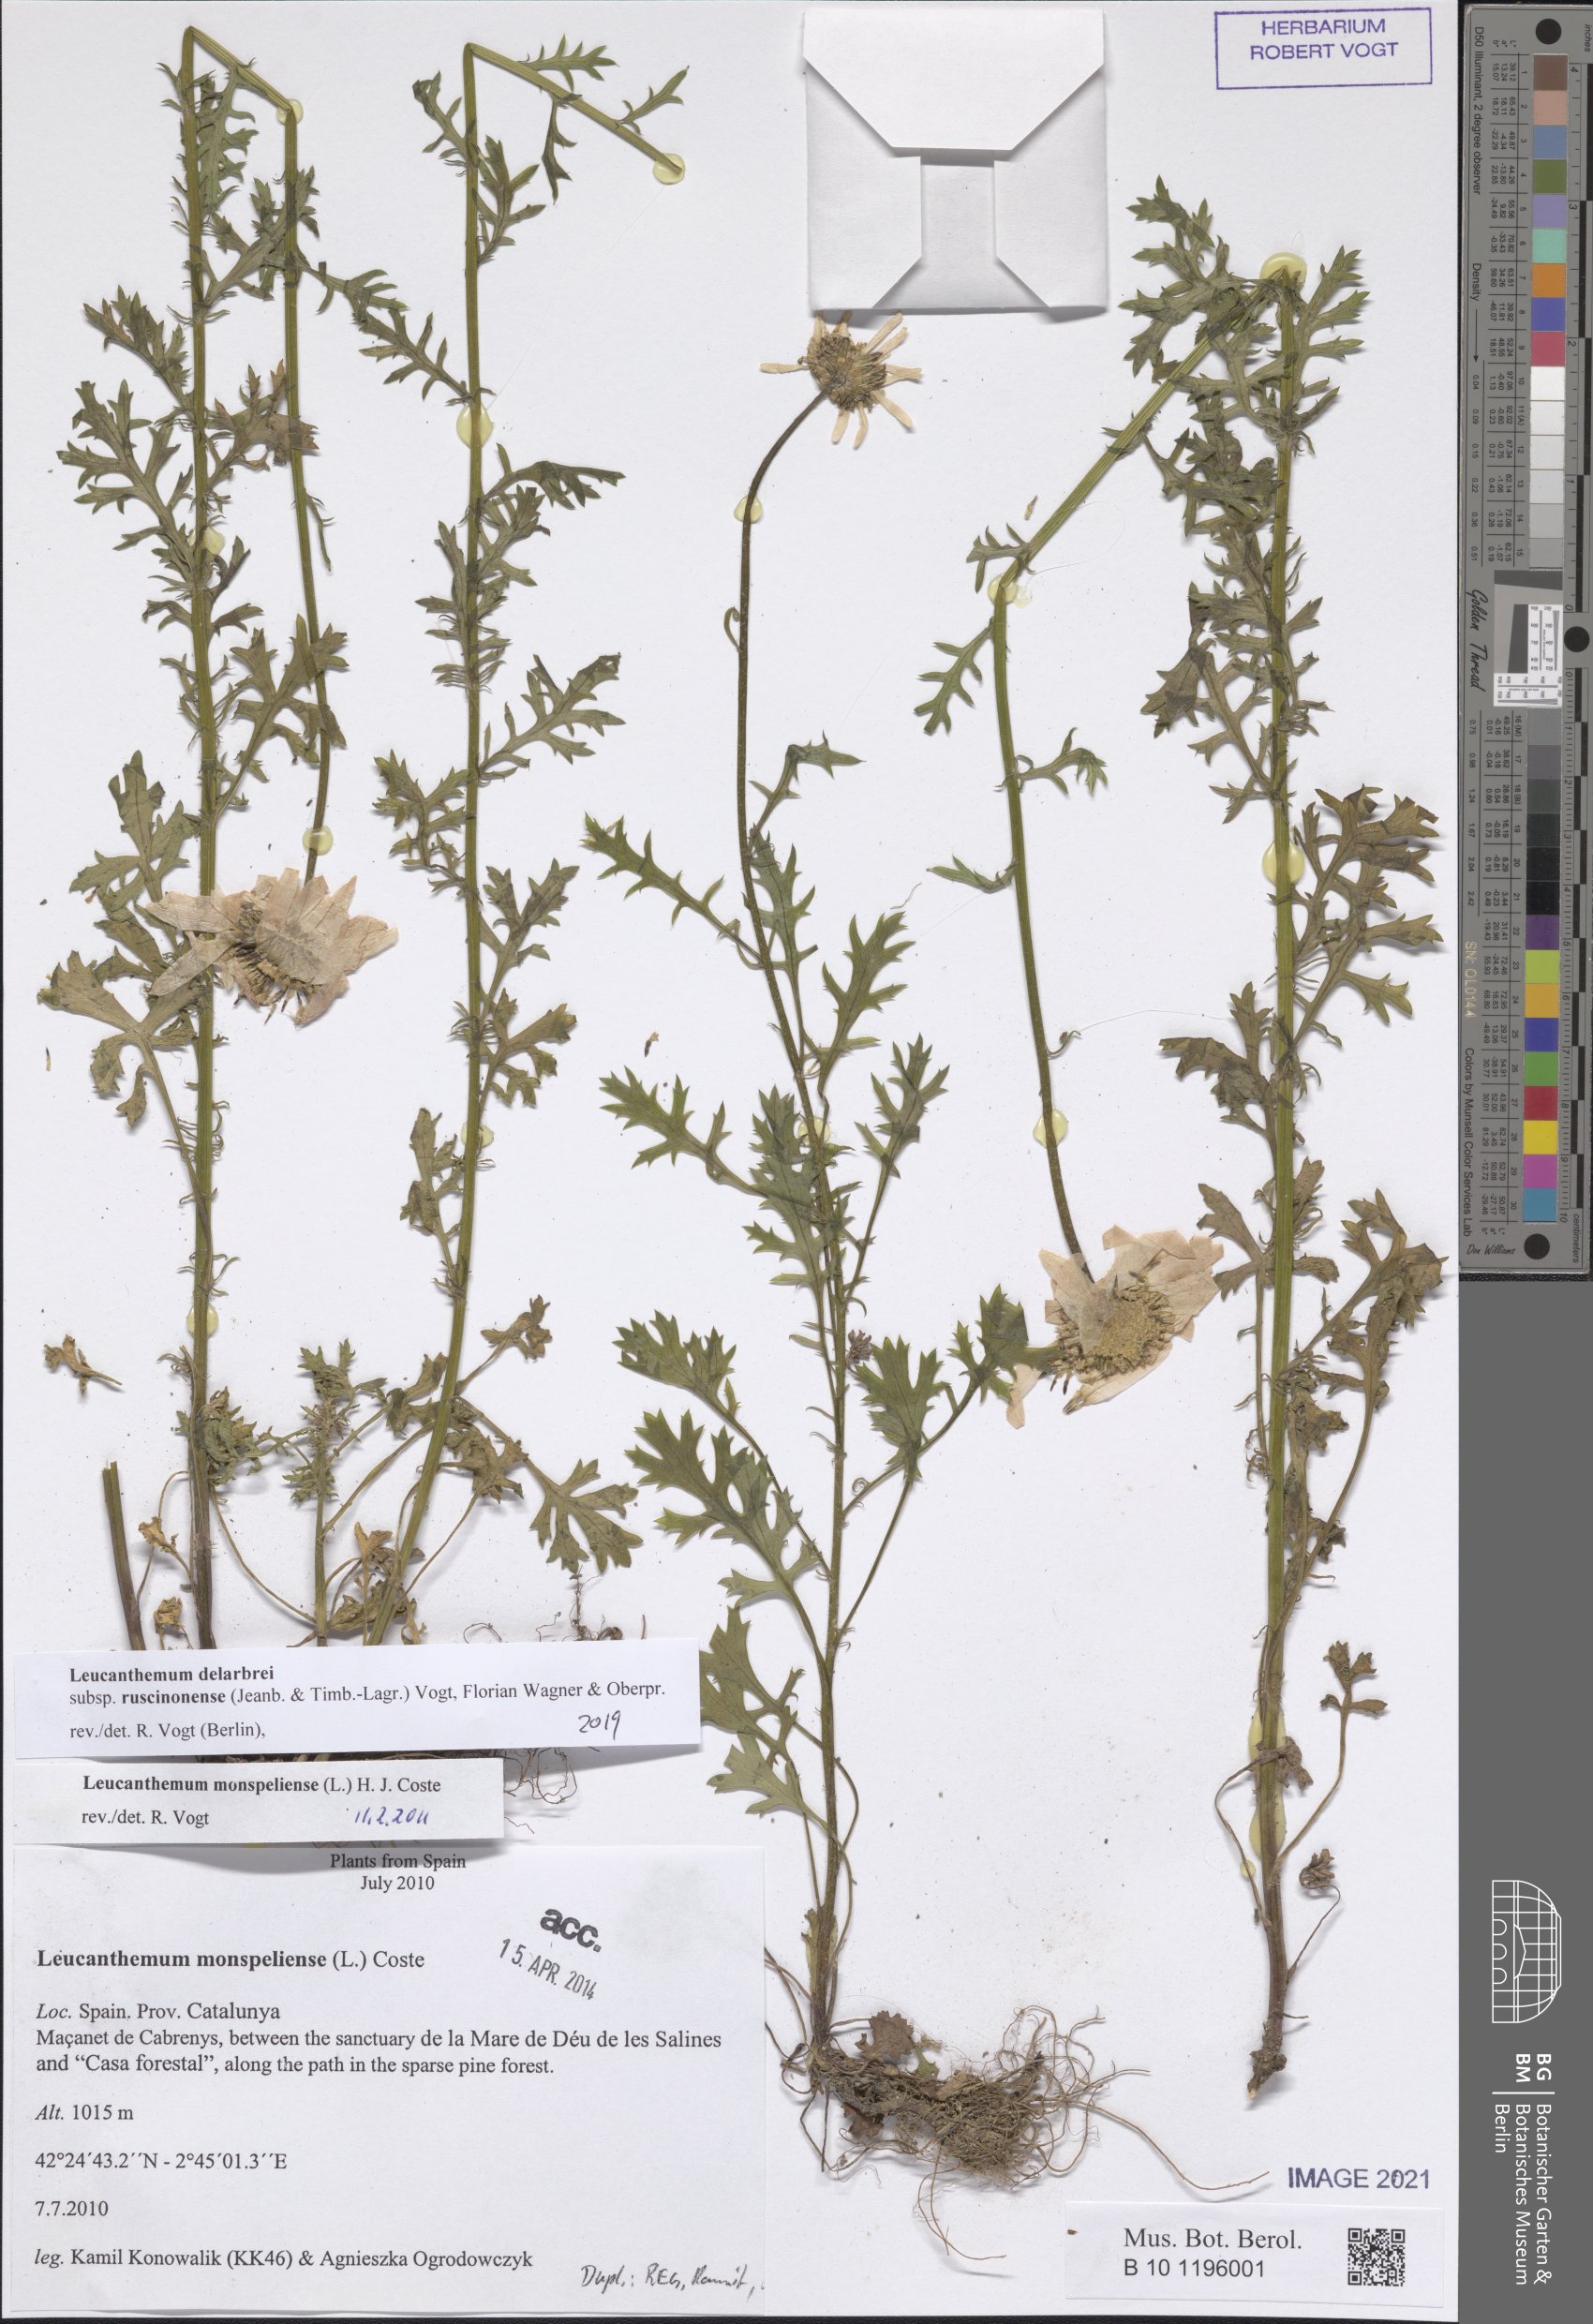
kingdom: Plantae
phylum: Tracheophyta
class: Magnoliopsida
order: Asterales
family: Asteraceae
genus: Leucanthemum
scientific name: Leucanthemum delarbrei
